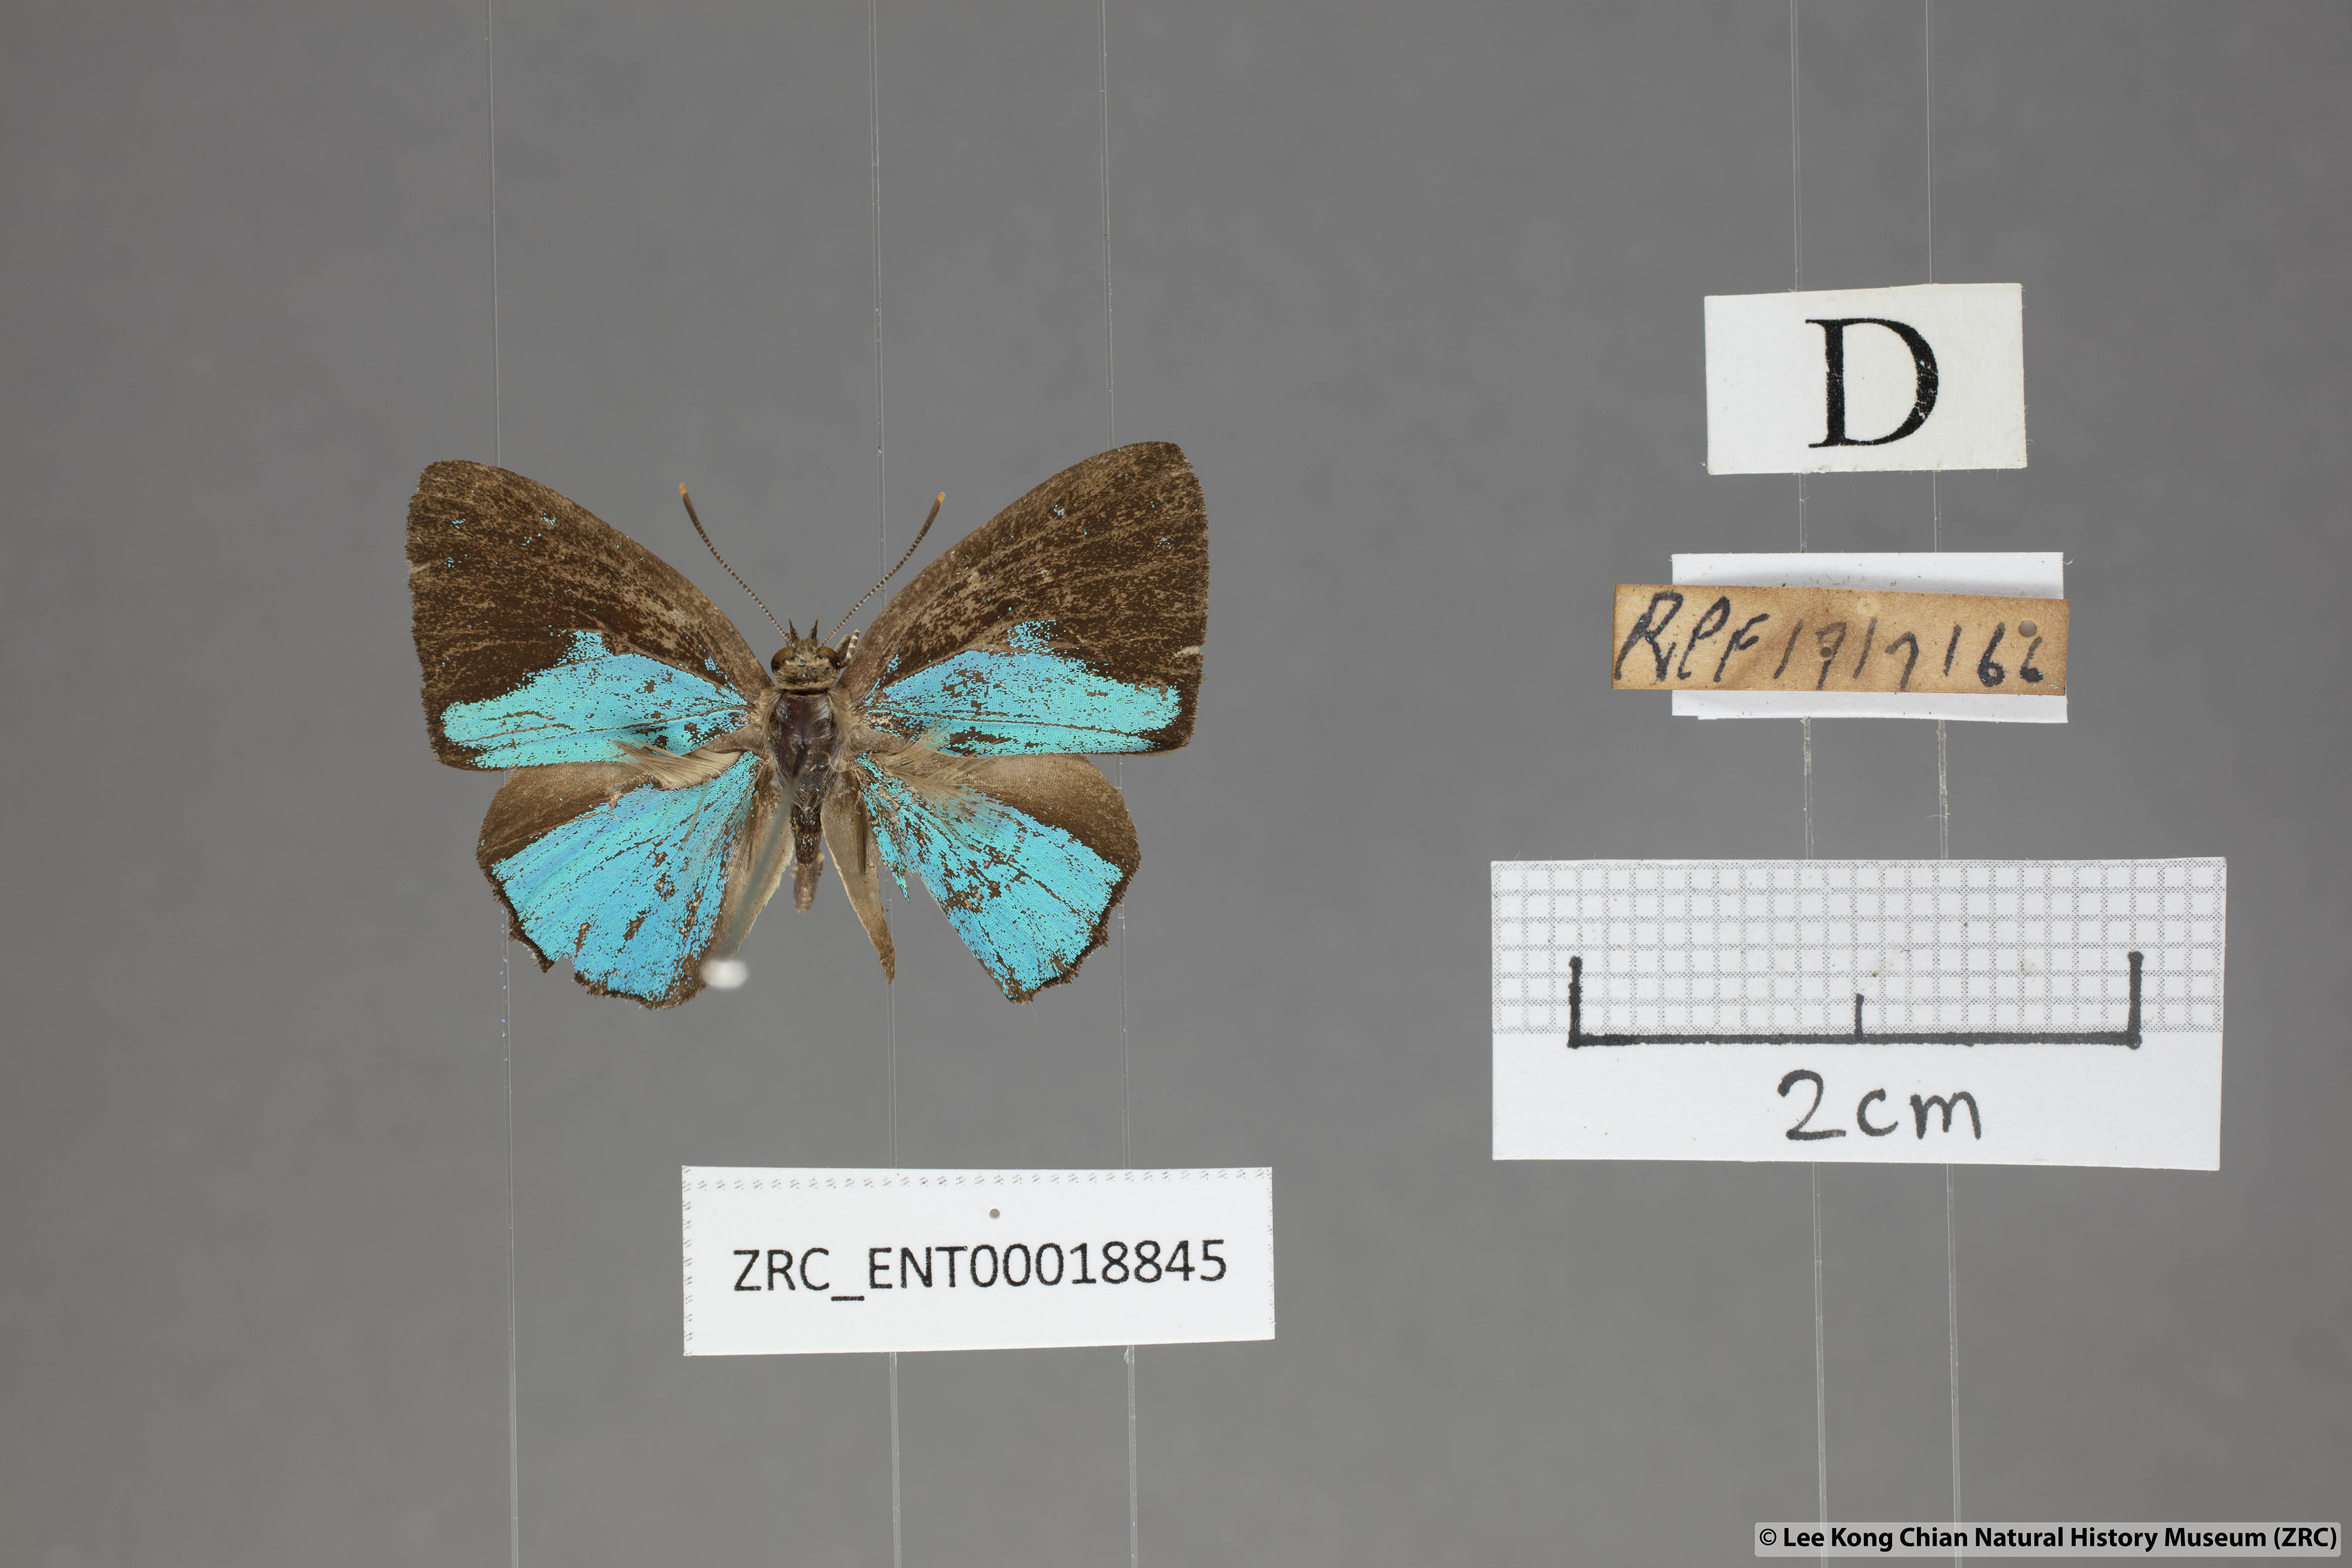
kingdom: Animalia
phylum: Arthropoda
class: Insecta
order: Lepidoptera
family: Lycaenidae
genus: Poritia
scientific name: Poritia sumatrae
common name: Sumatran gem
